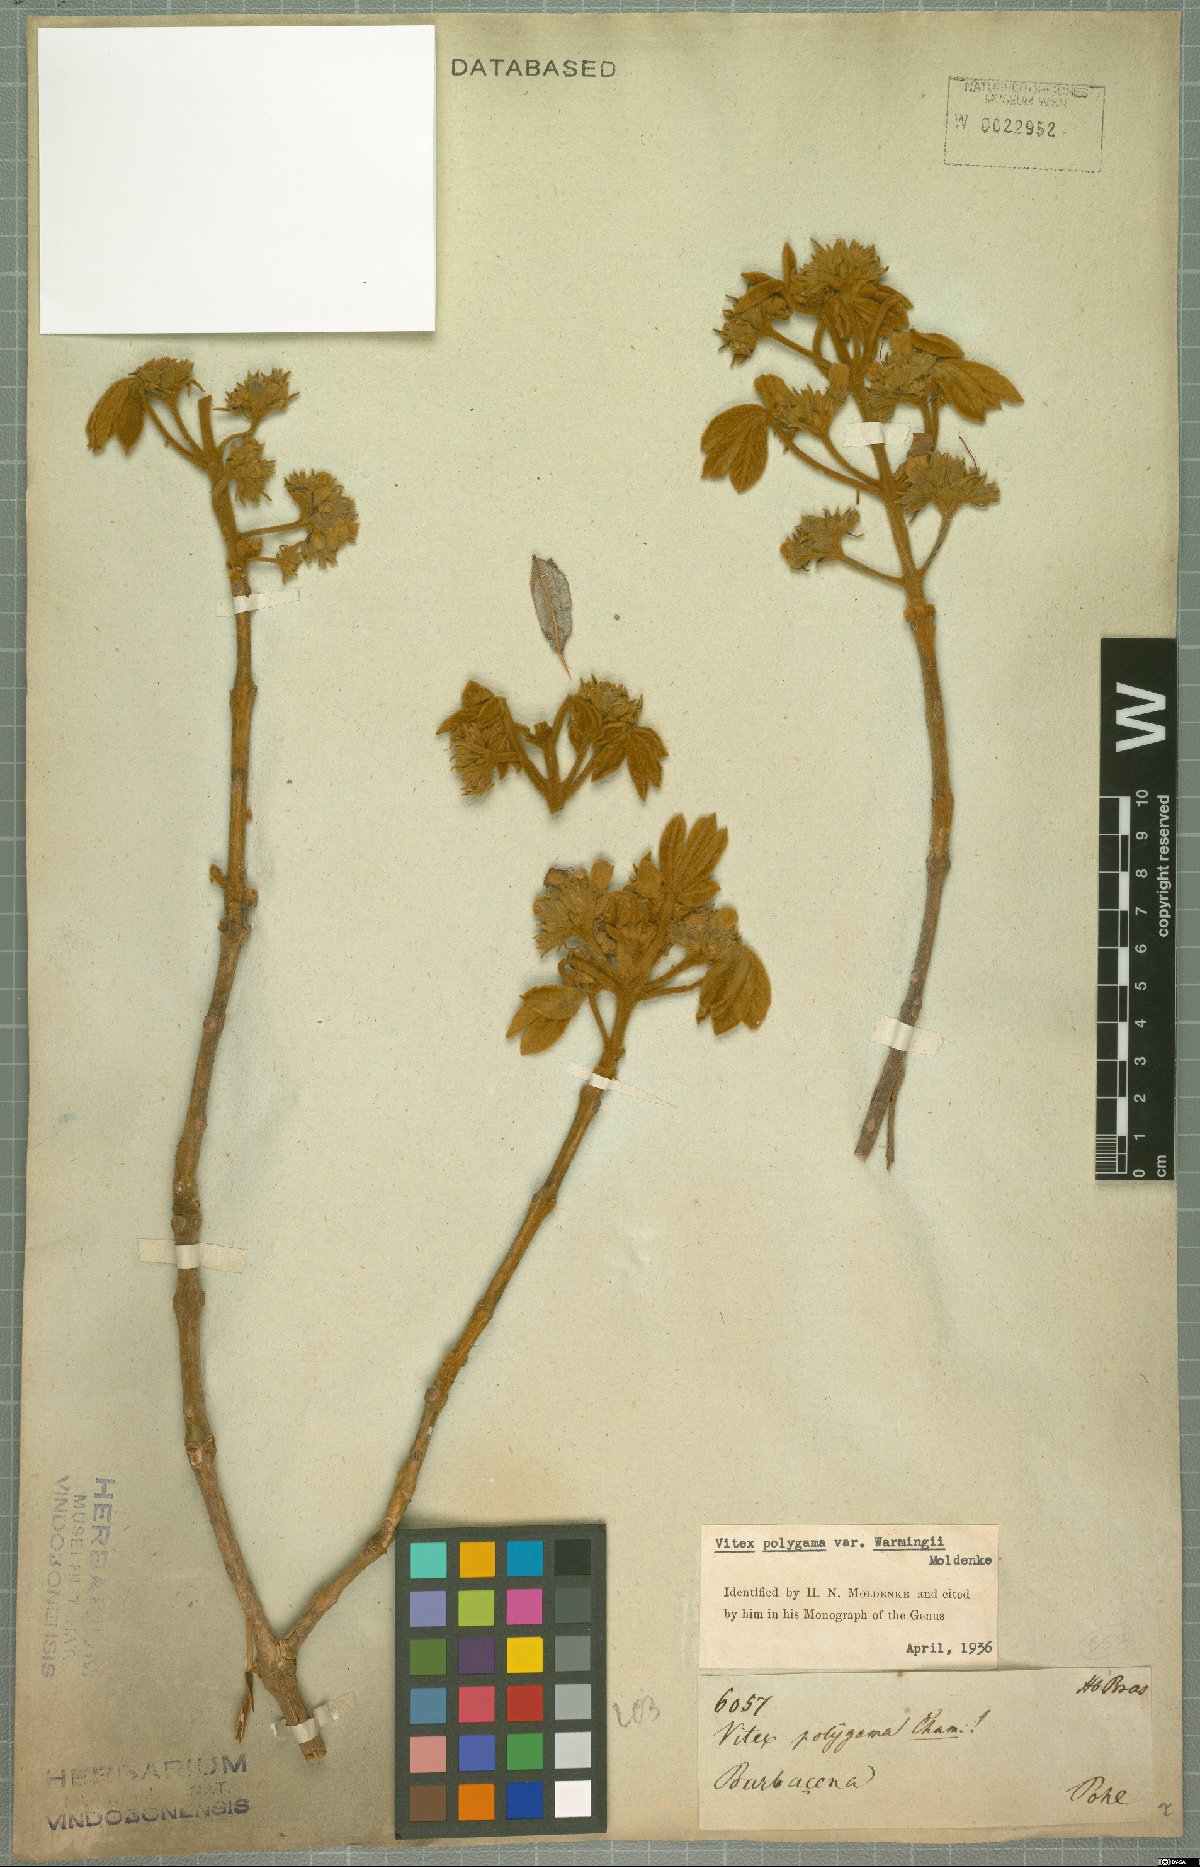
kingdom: Plantae
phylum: Tracheophyta
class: Magnoliopsida
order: Lamiales
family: Lamiaceae
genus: Vitex
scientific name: Vitex polygama
